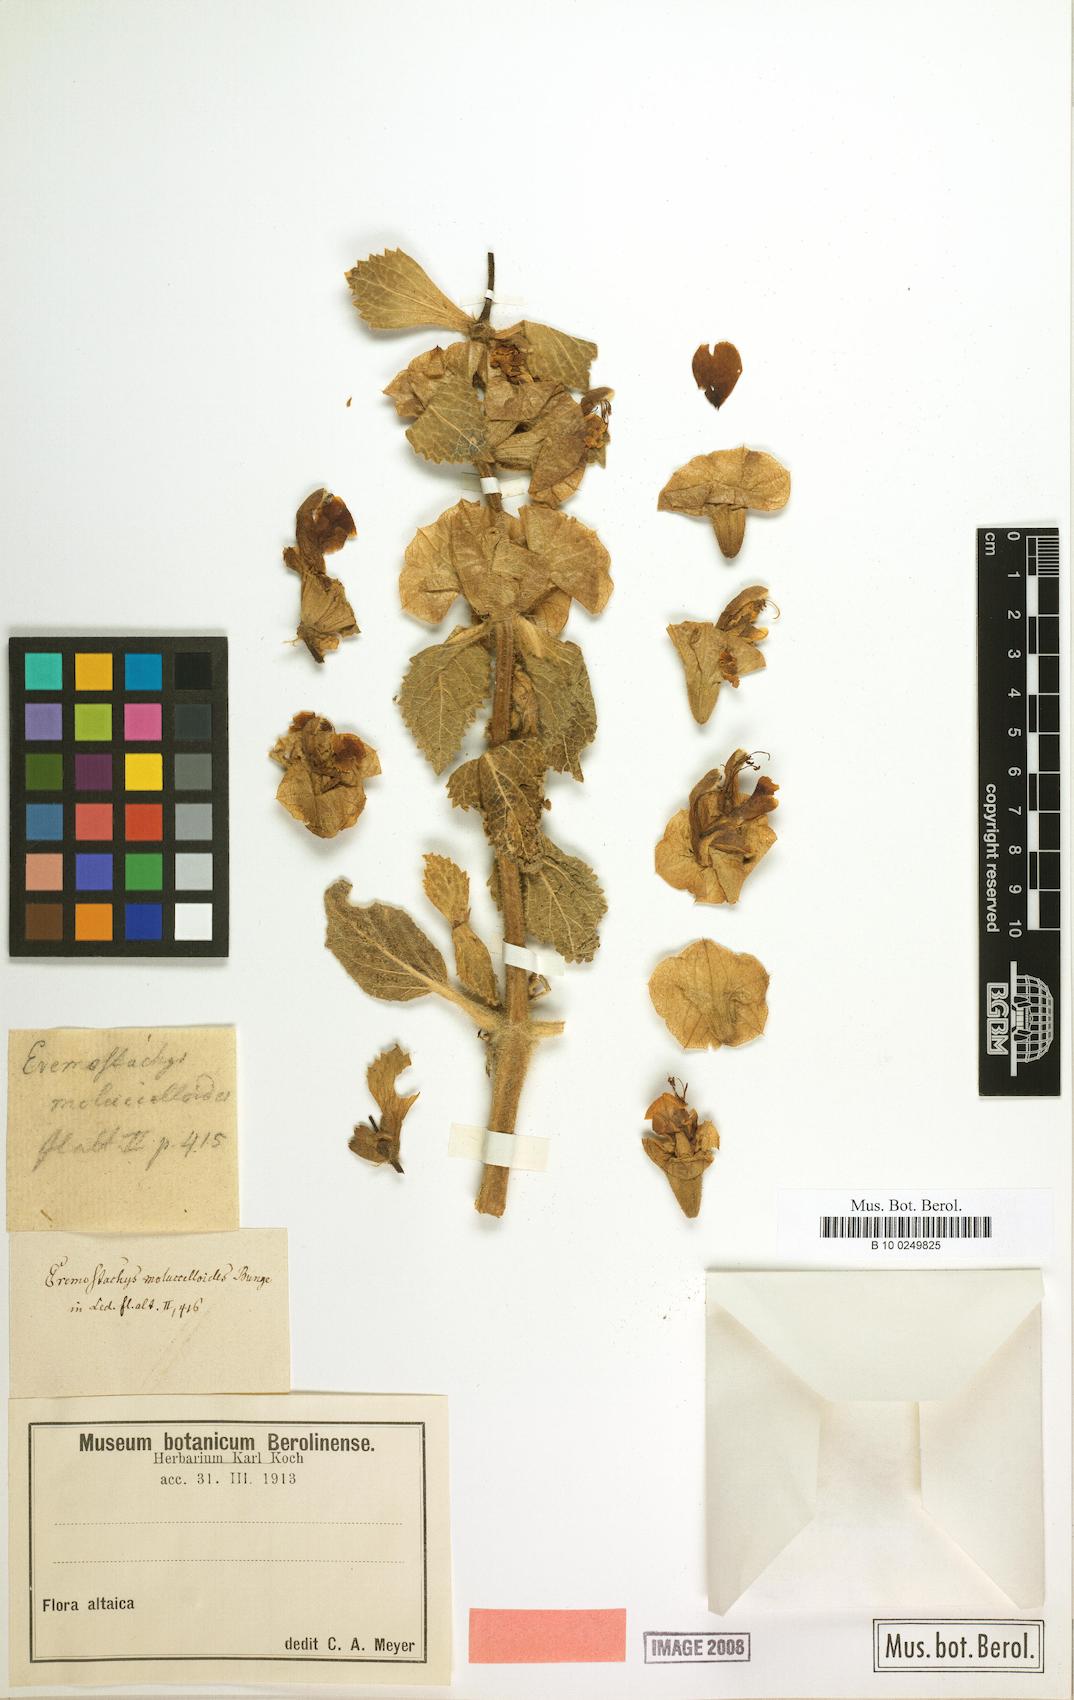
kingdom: Plantae
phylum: Tracheophyta
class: Magnoliopsida
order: Lamiales
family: Lamiaceae
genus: Phlomoides
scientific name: Phlomoides molucelloides
